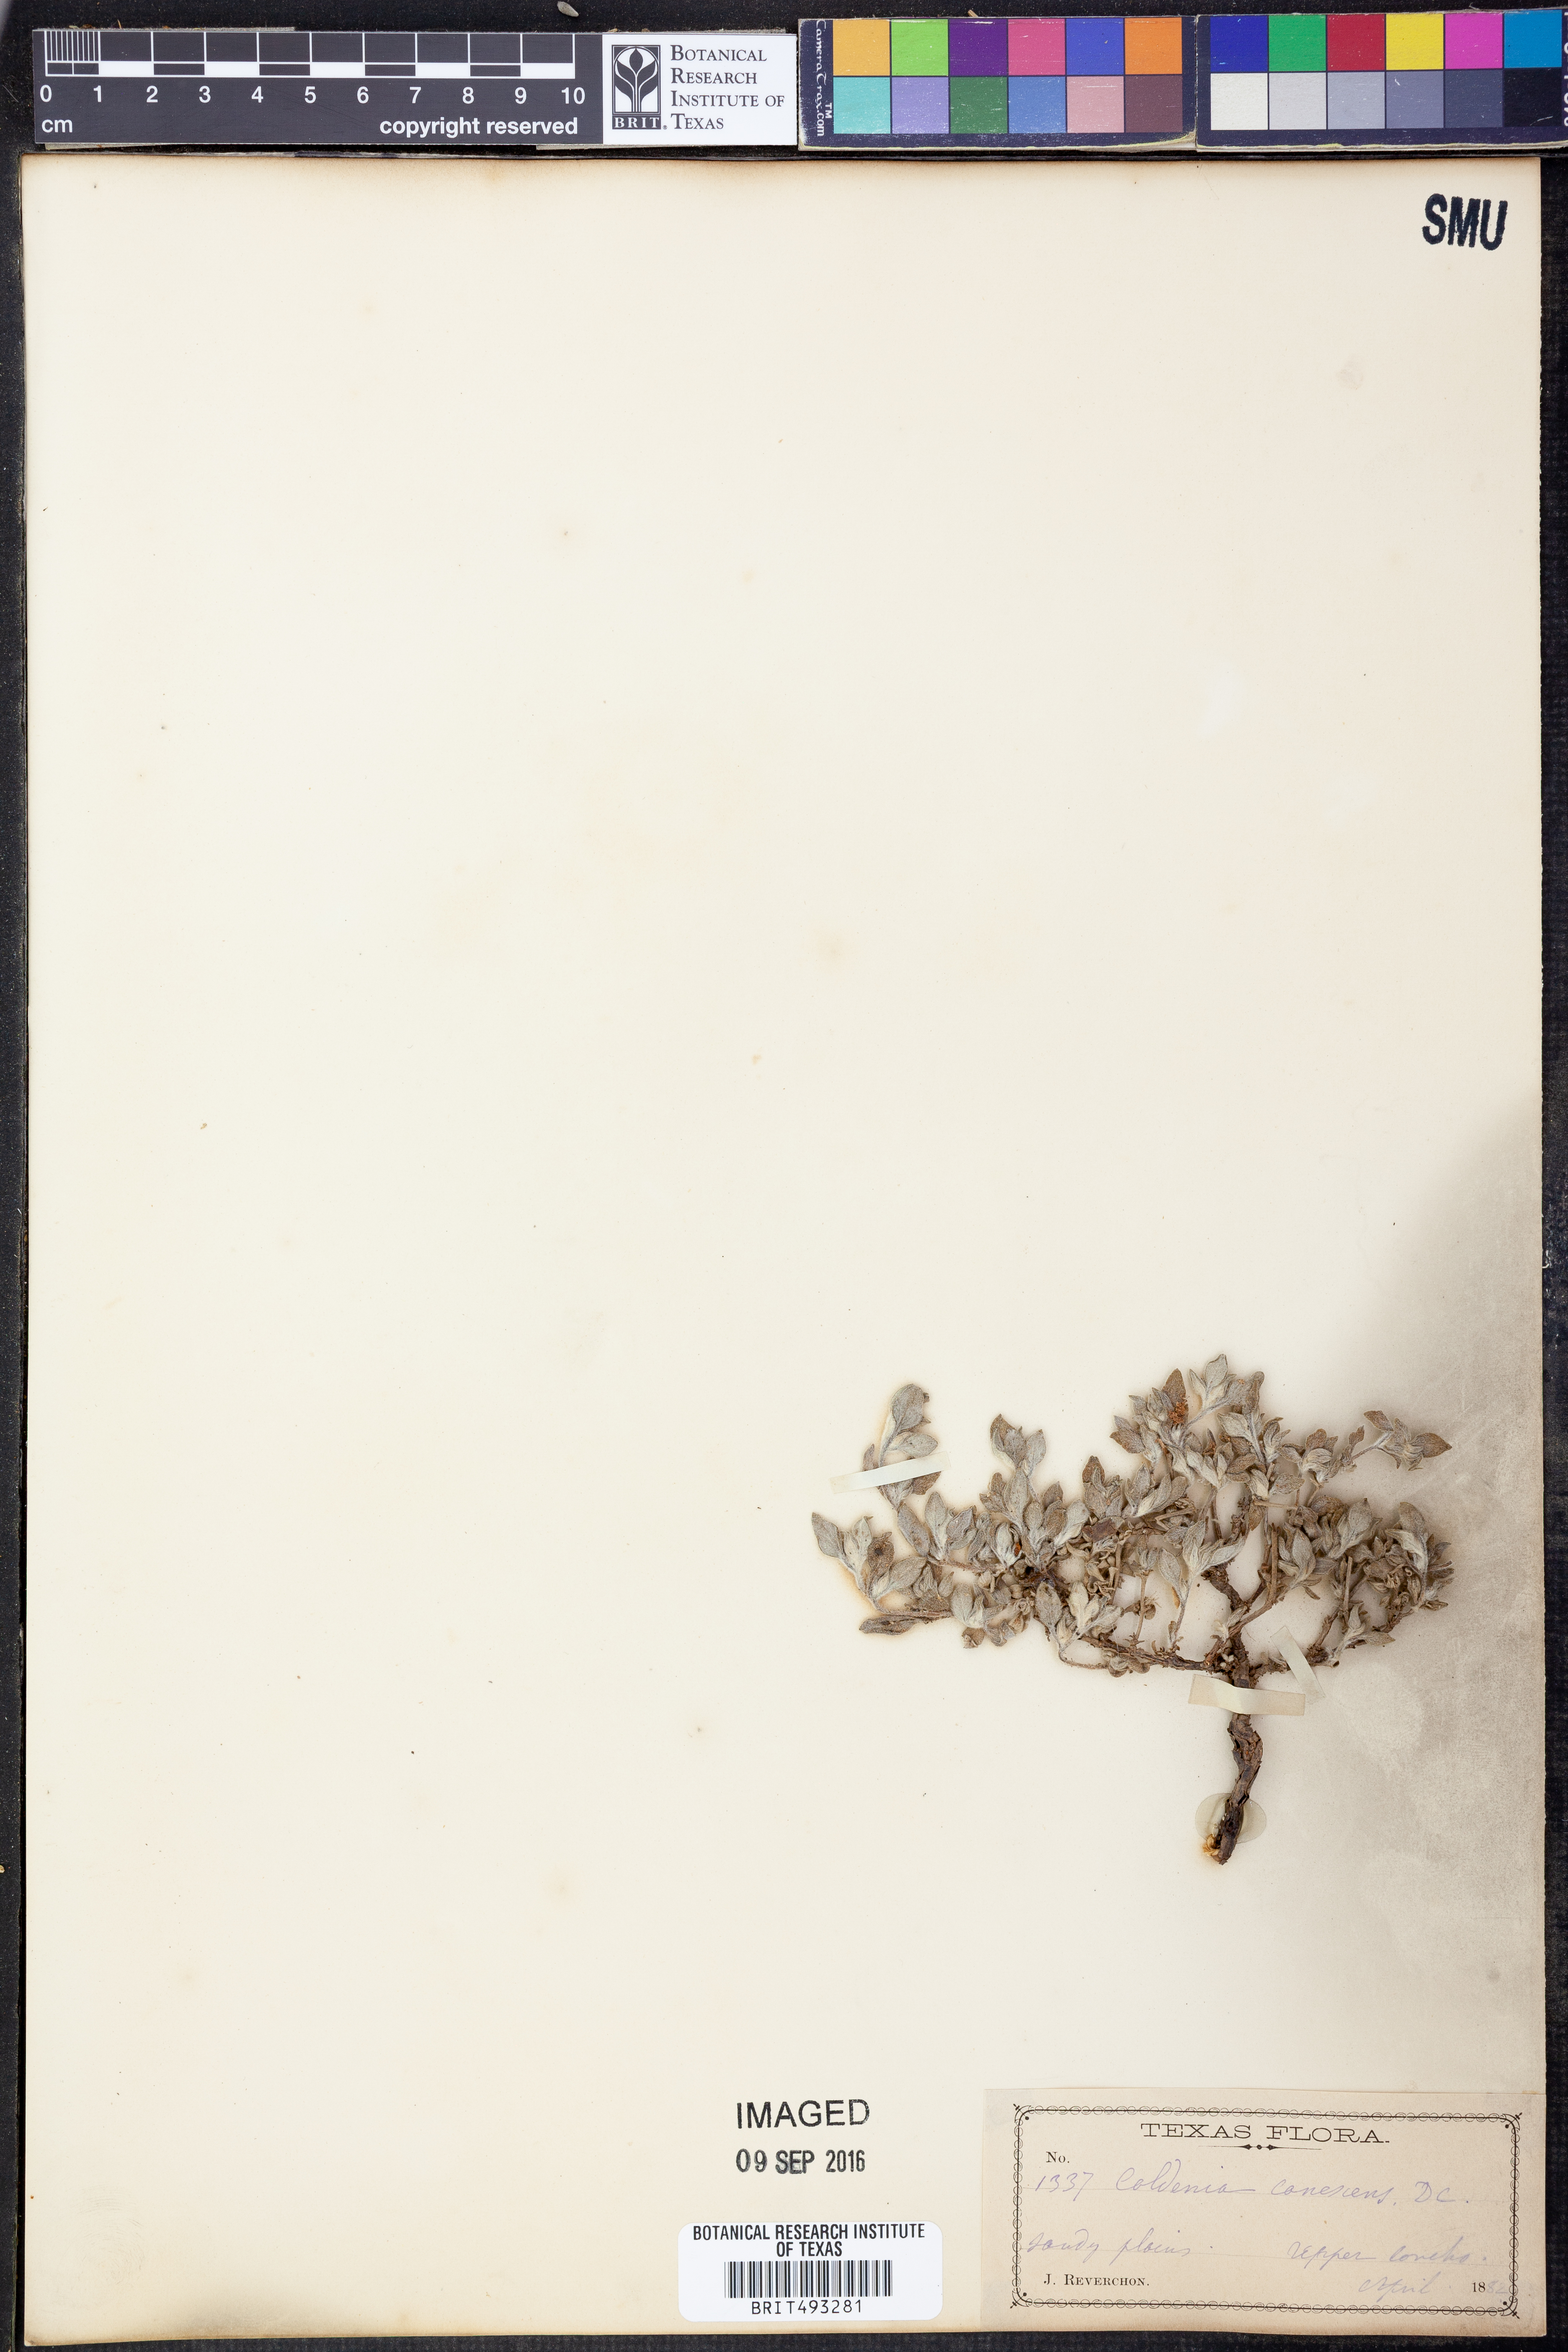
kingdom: Plantae
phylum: Tracheophyta
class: Magnoliopsida
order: Boraginales
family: Ehretiaceae
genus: Tiquilia
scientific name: Tiquilia canescens
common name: Hairy tiquilia
